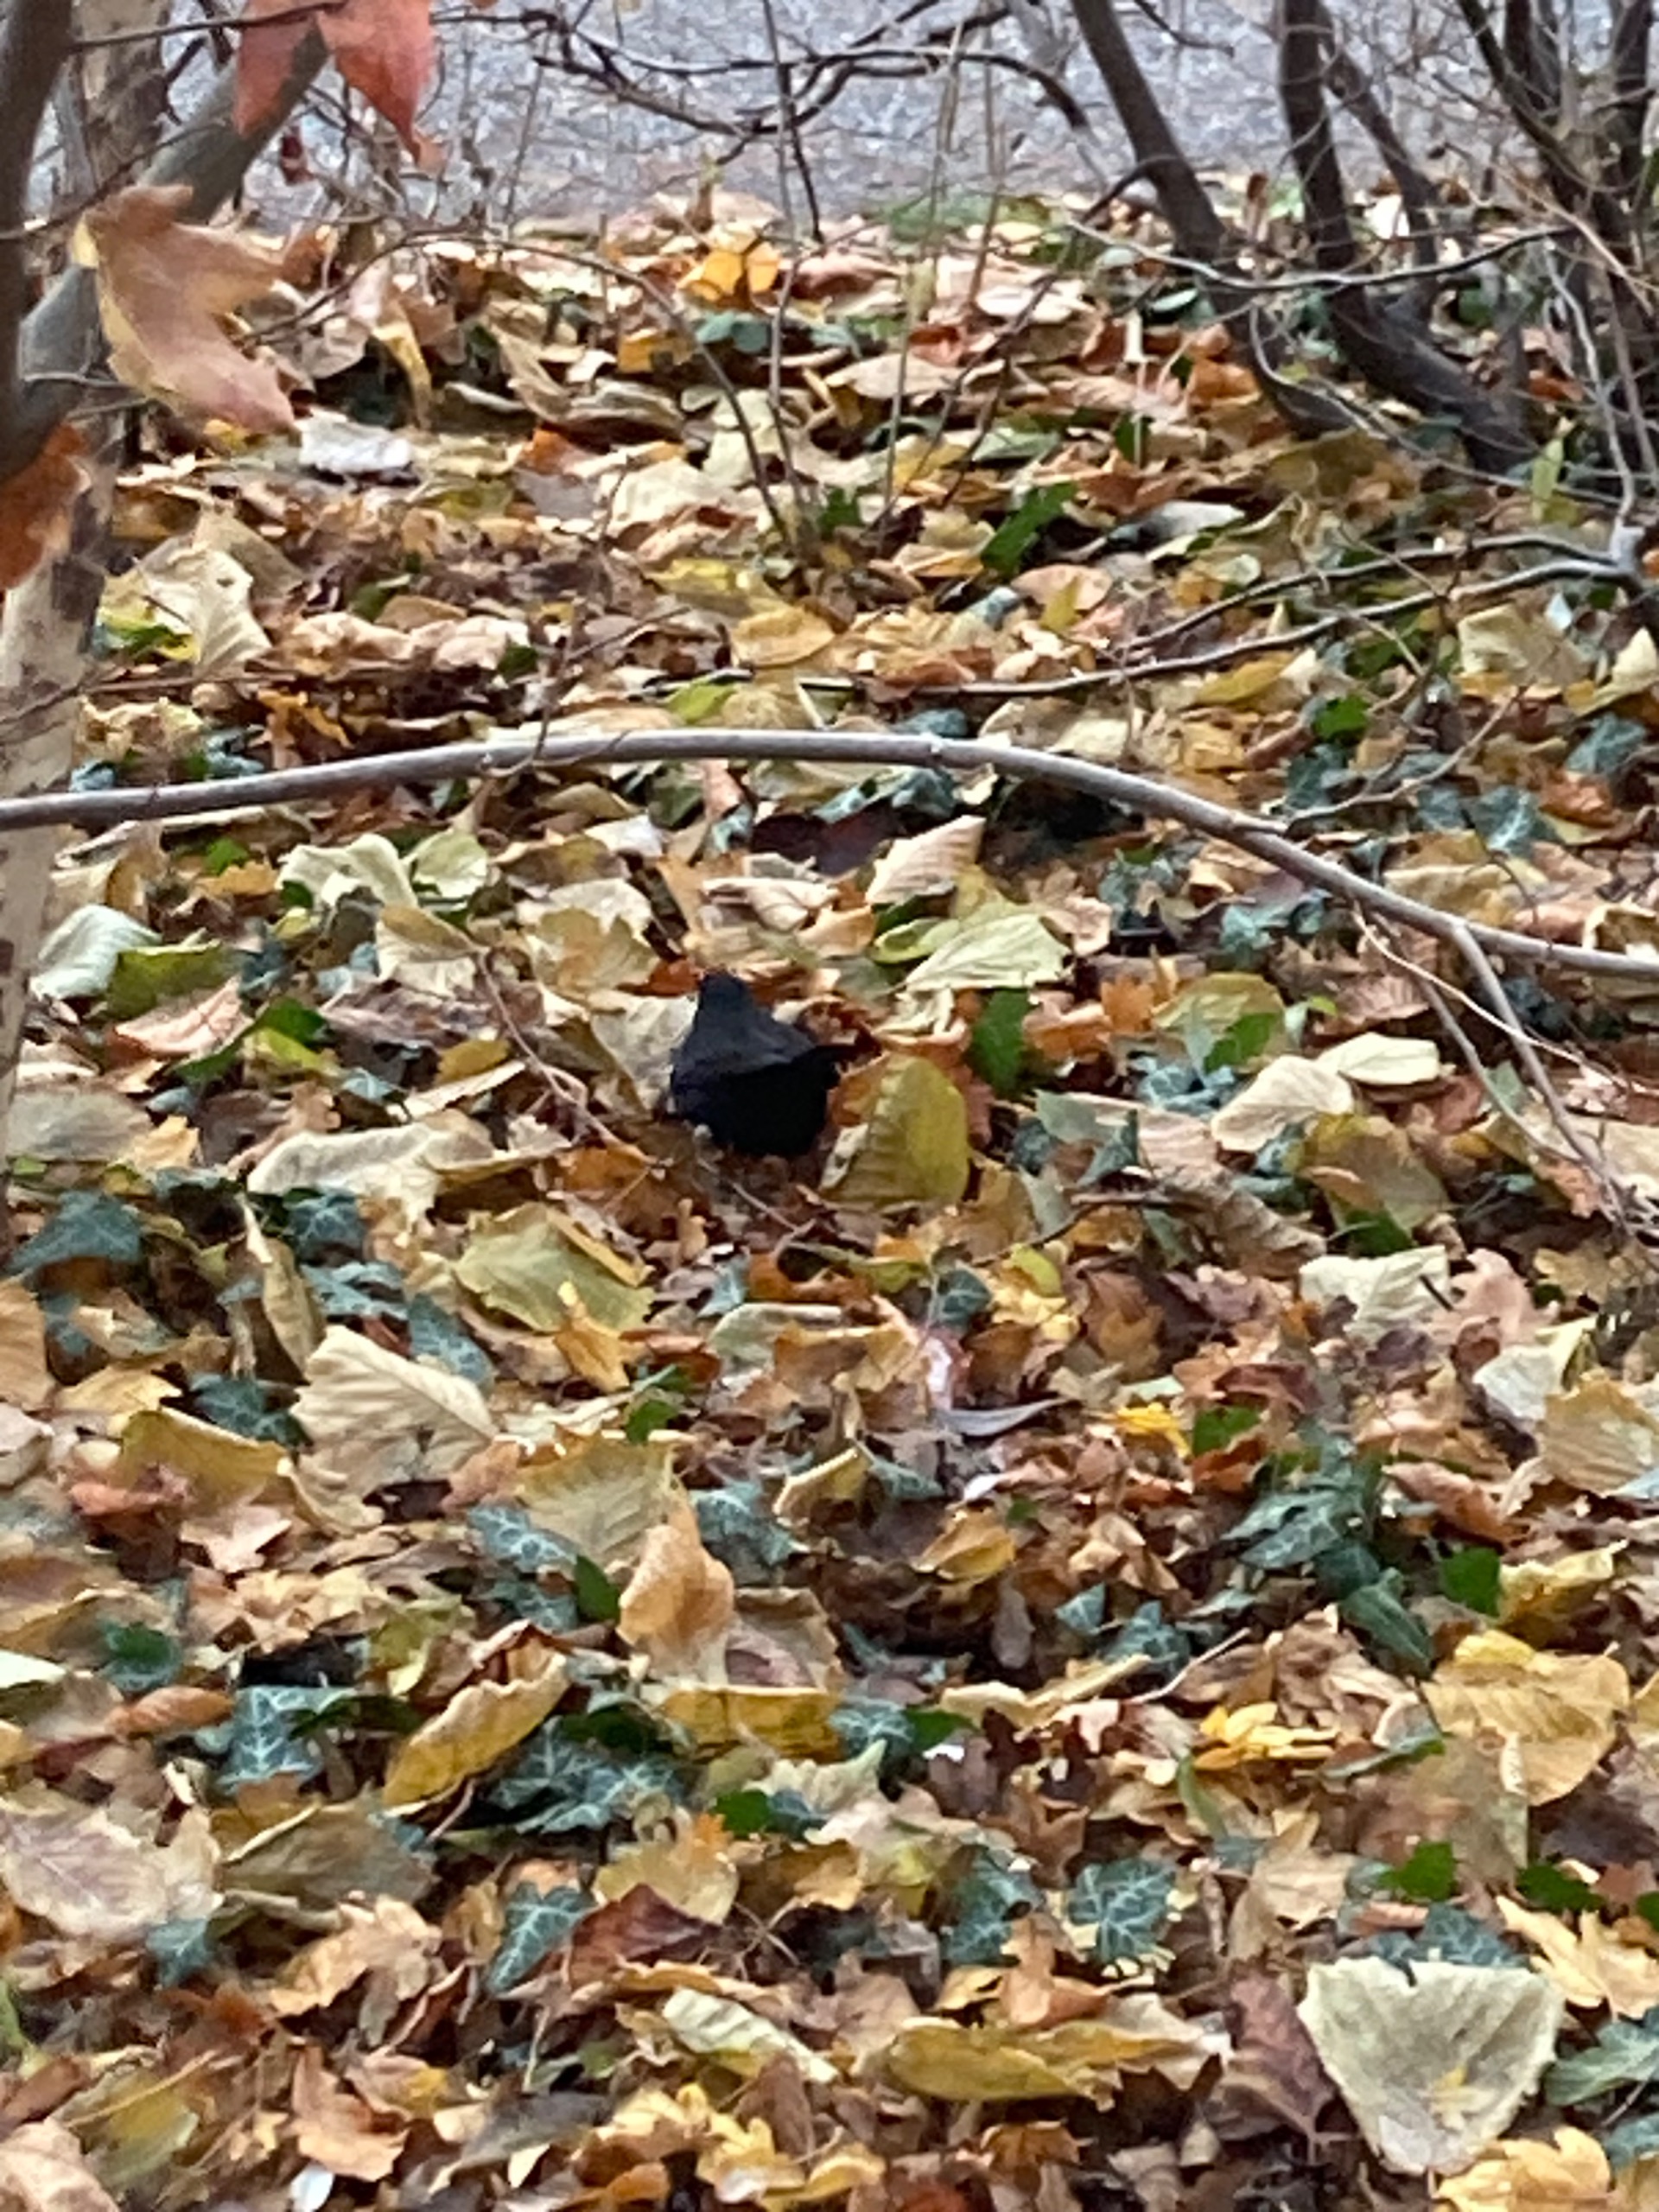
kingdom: Animalia
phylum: Chordata
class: Aves
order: Passeriformes
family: Turdidae
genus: Turdus
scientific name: Turdus merula
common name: Solsort
